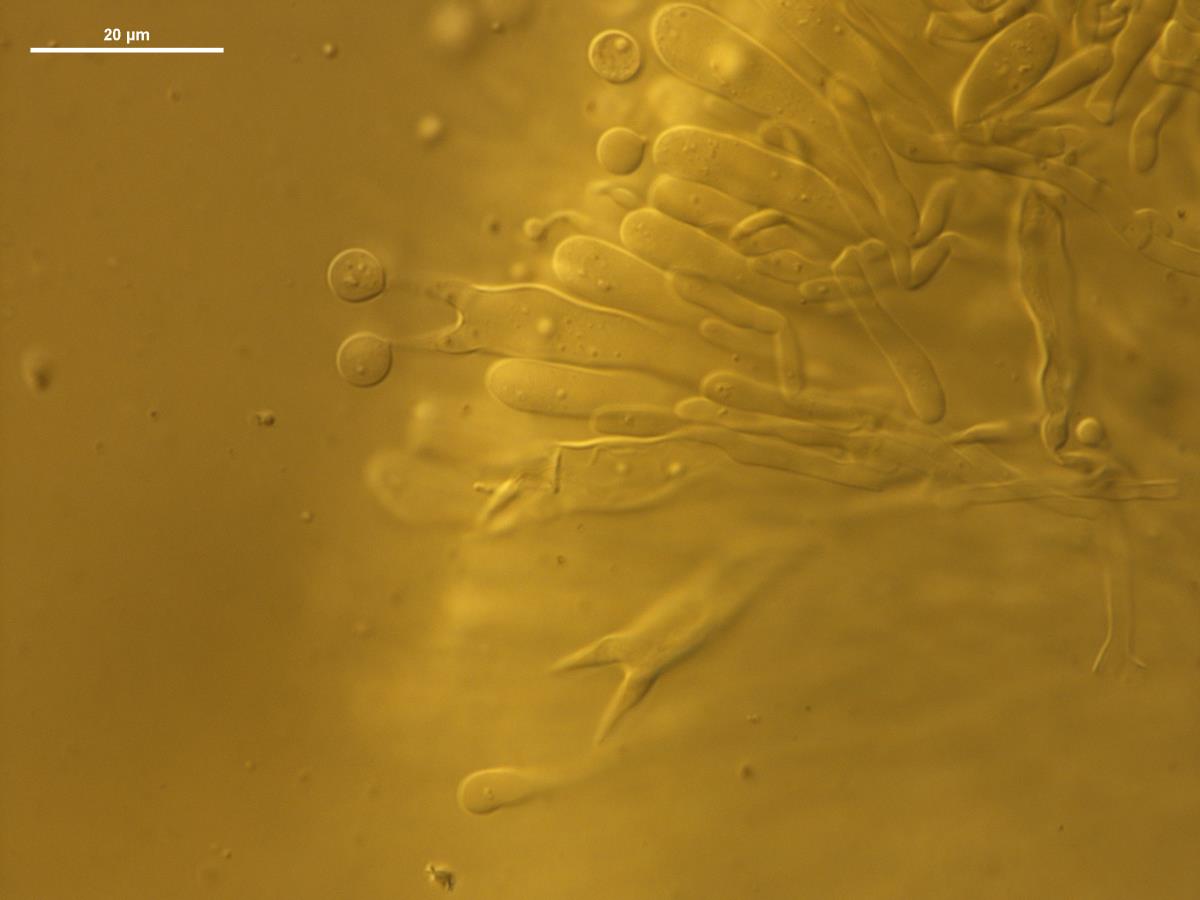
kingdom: Fungi
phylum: Basidiomycota
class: Agaricomycetes
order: Agaricales
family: Clavariaceae
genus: Clavulinopsis
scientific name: Clavulinopsis sulcata
